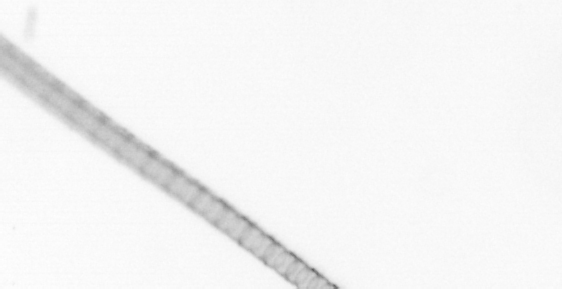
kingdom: Chromista
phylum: Ochrophyta
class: Bacillariophyceae
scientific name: Bacillariophyceae
